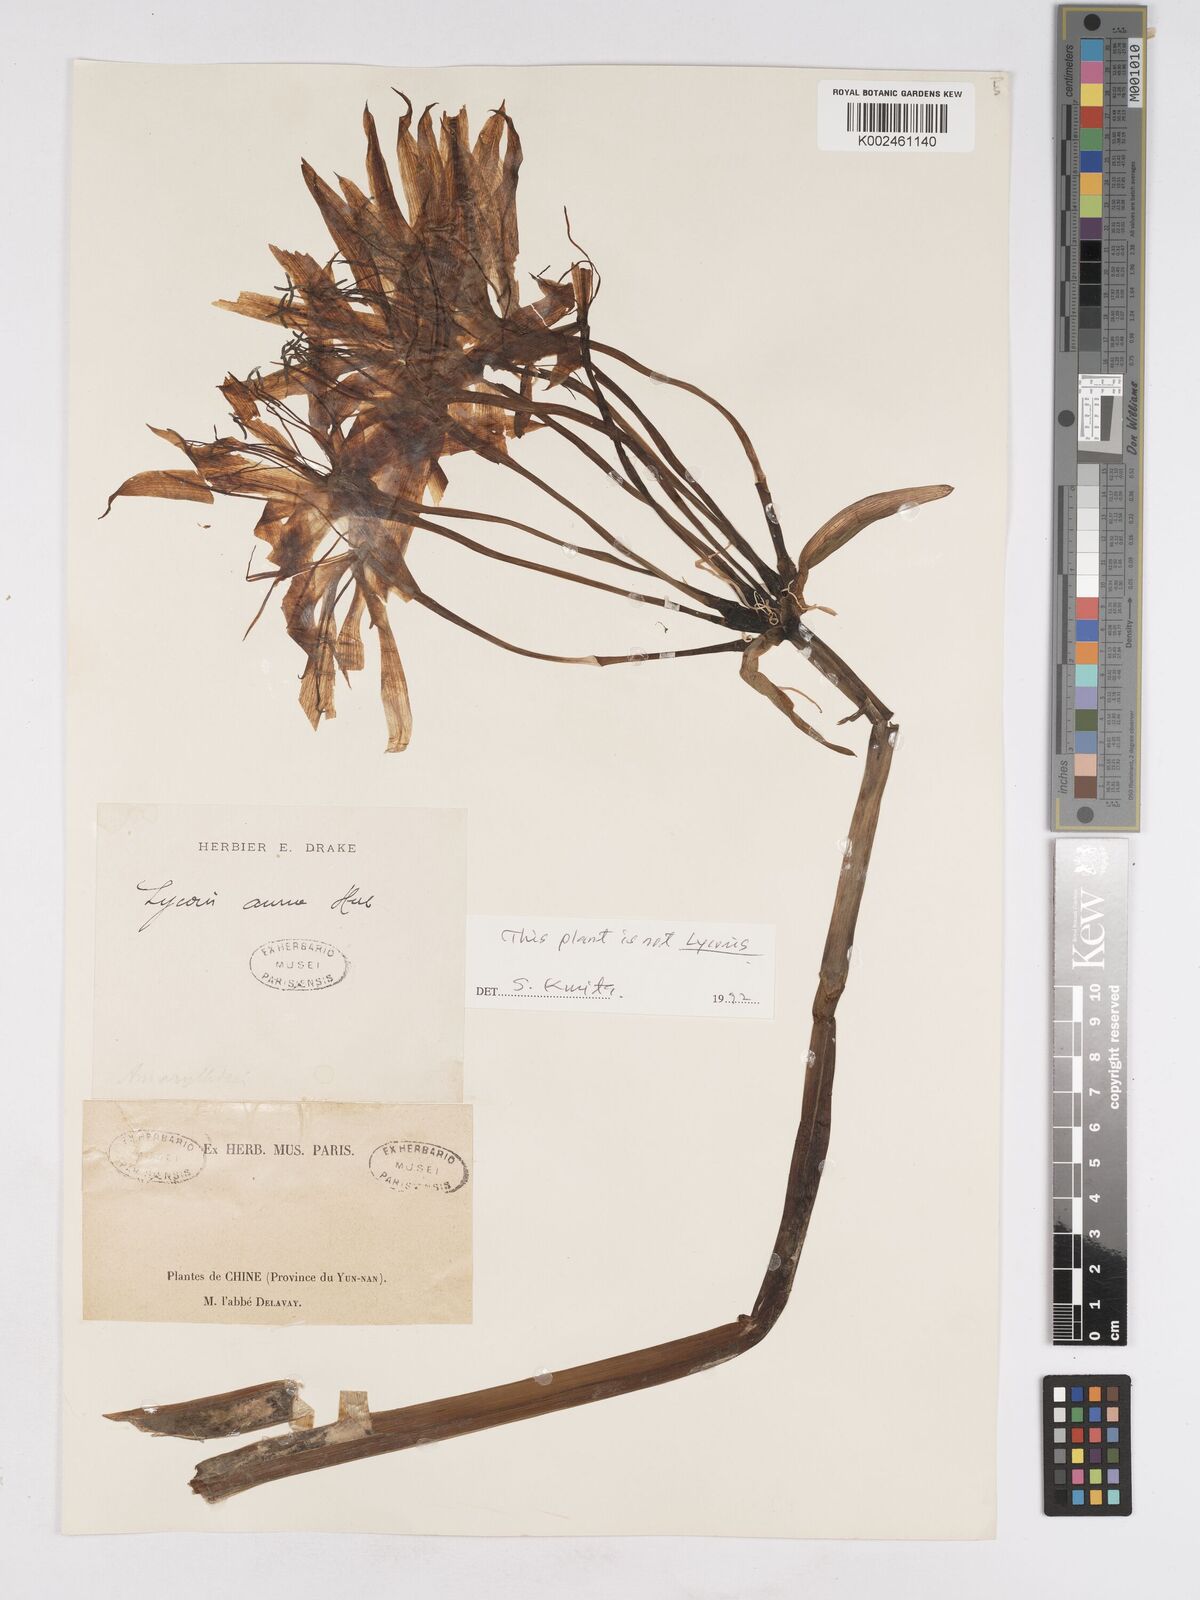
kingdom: Plantae
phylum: Tracheophyta
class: Liliopsida
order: Asparagales
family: Amaryllidaceae
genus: Lycoris
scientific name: Lycoris aurea
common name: Golden hurricane-lily
